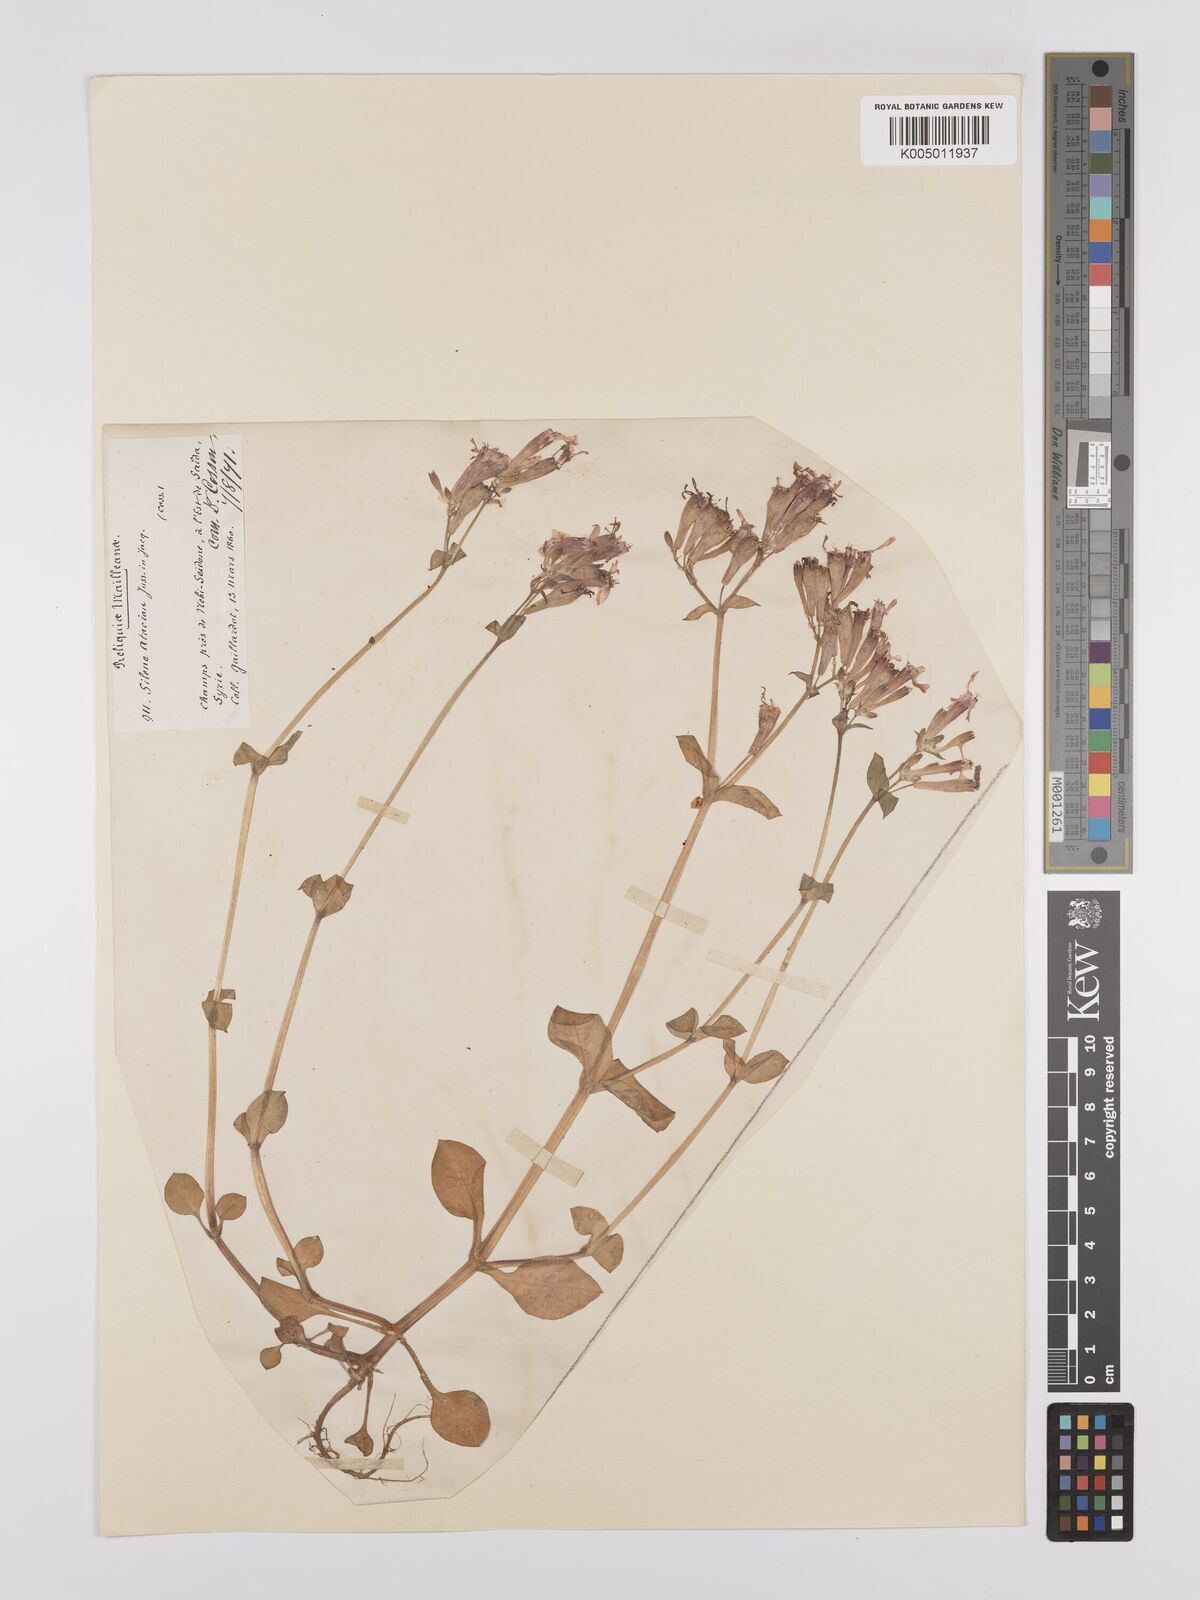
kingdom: Plantae
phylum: Tracheophyta
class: Magnoliopsida
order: Caryophyllales
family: Caryophyllaceae
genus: Silene
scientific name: Silene aegyptiaca
